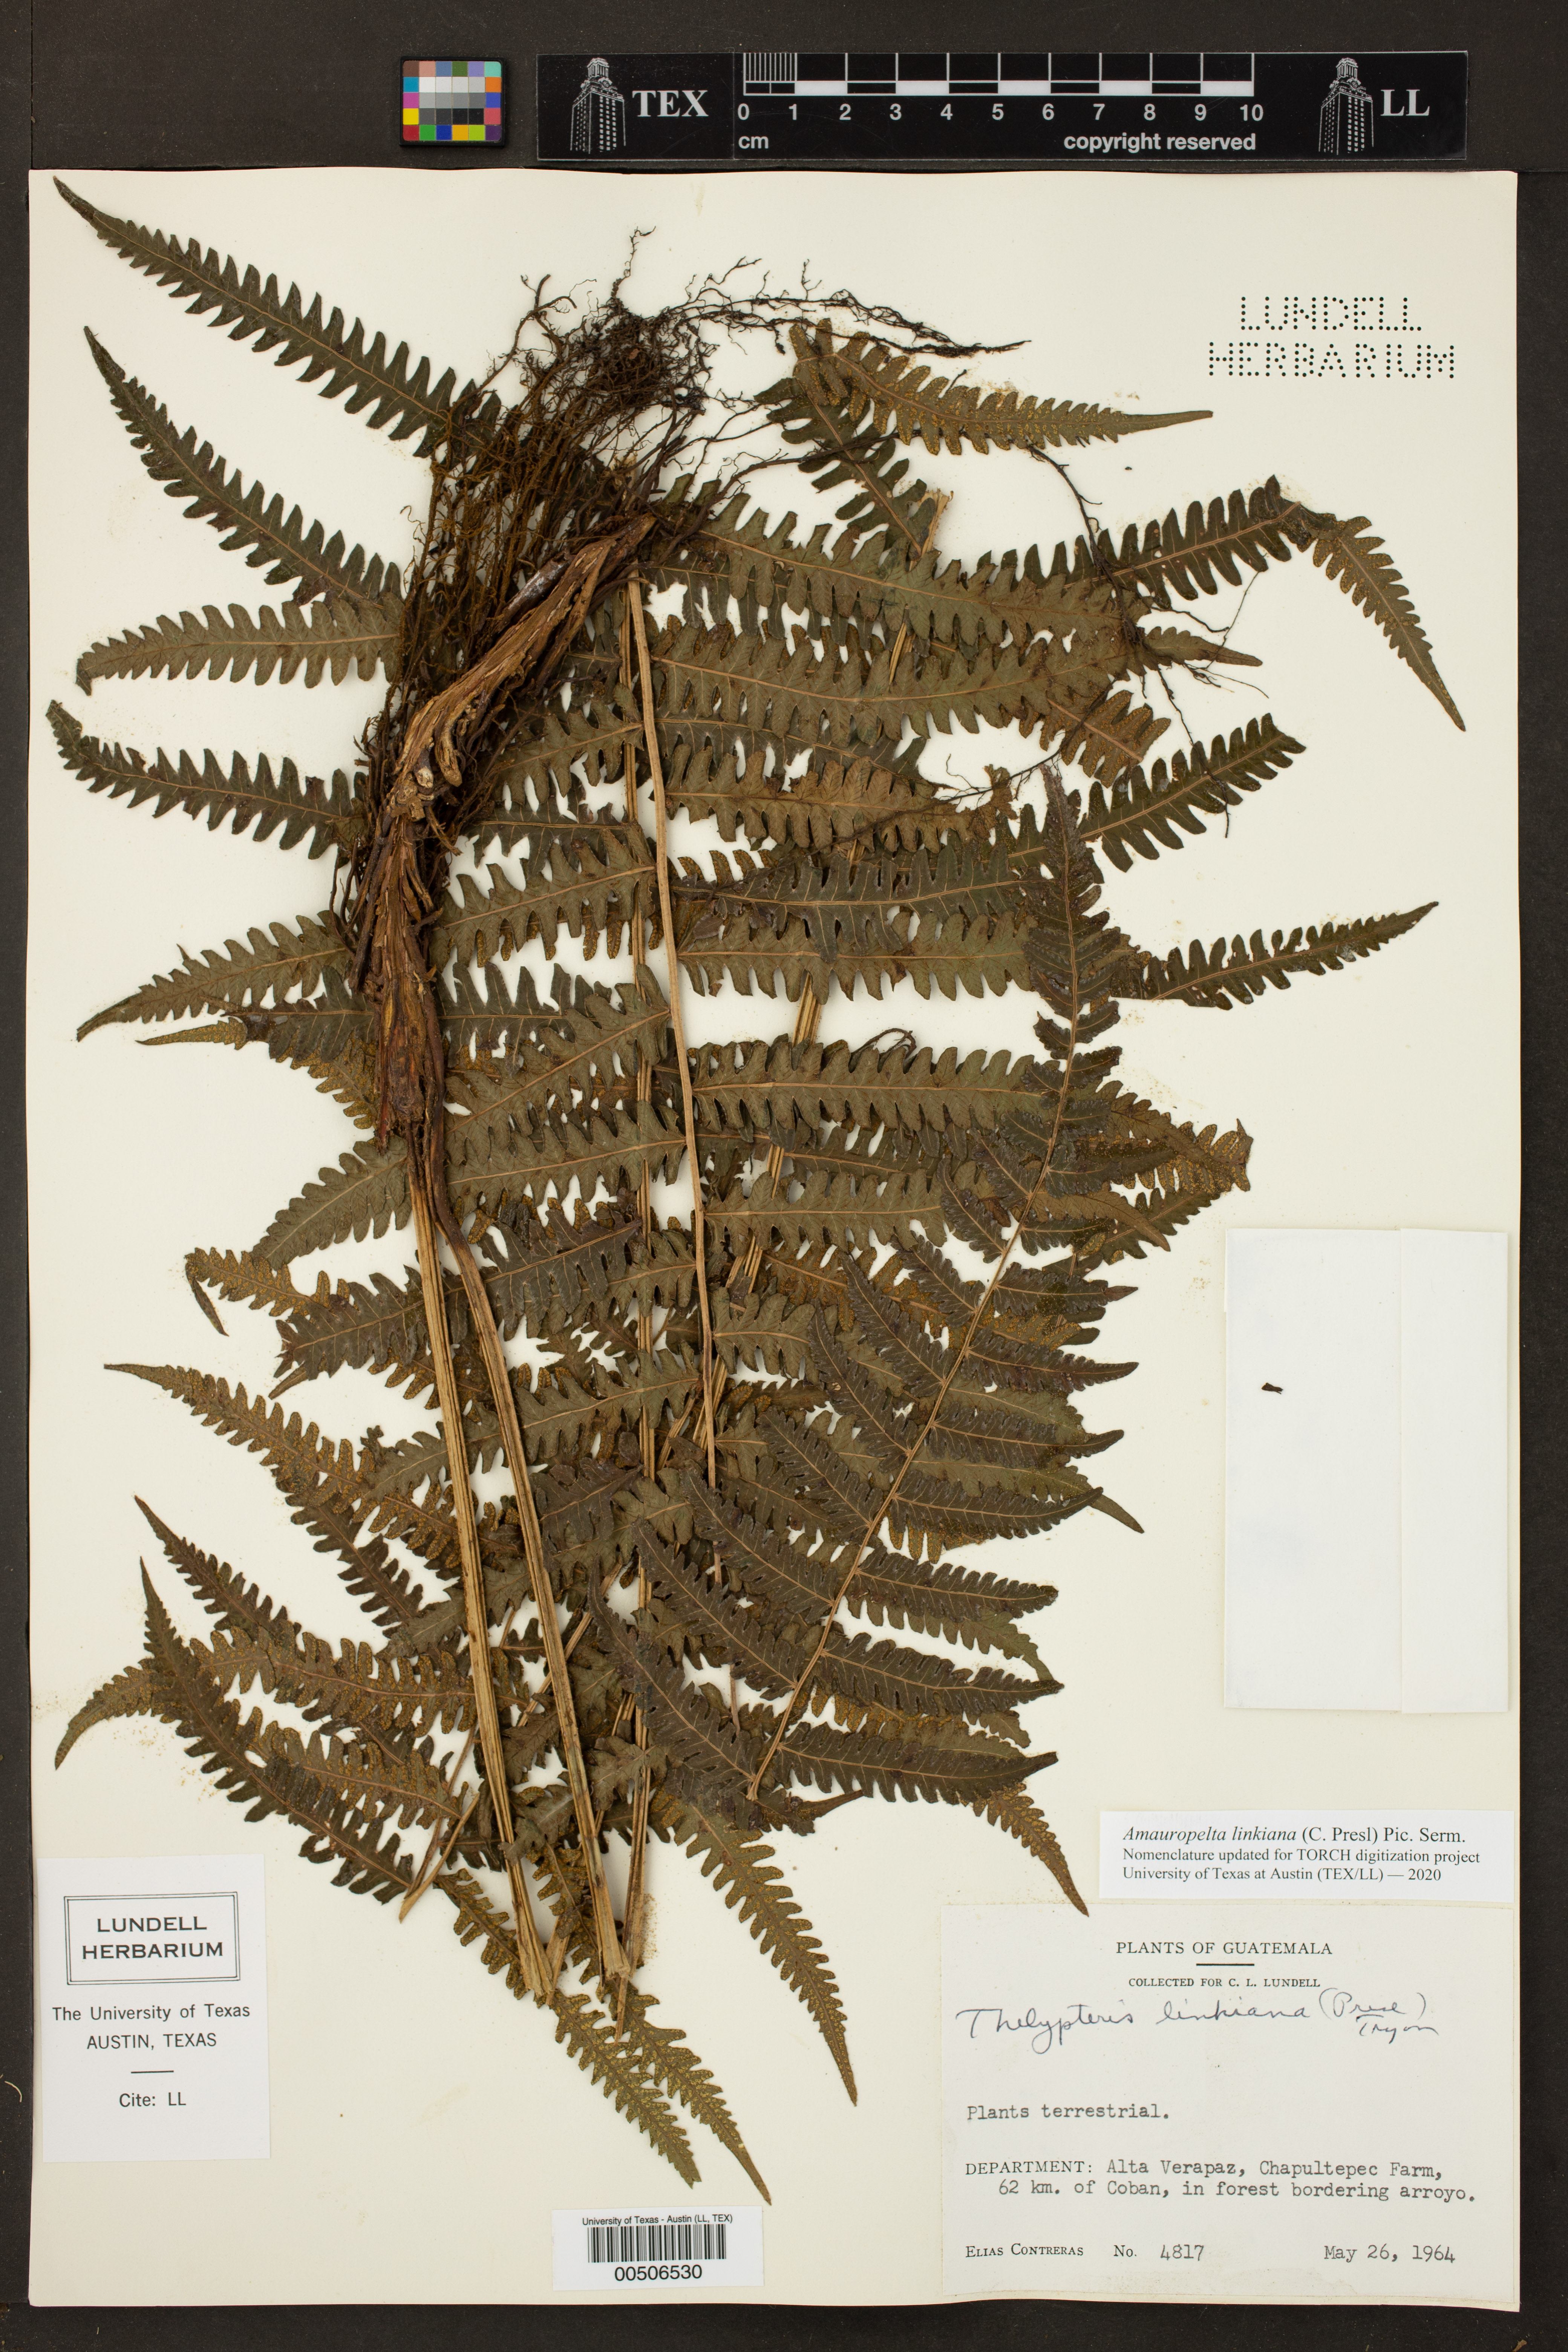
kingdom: Plantae
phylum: Tracheophyta
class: Polypodiopsida
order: Polypodiales
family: Thelypteridaceae
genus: Amauropelta
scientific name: Amauropelta diplazioides
